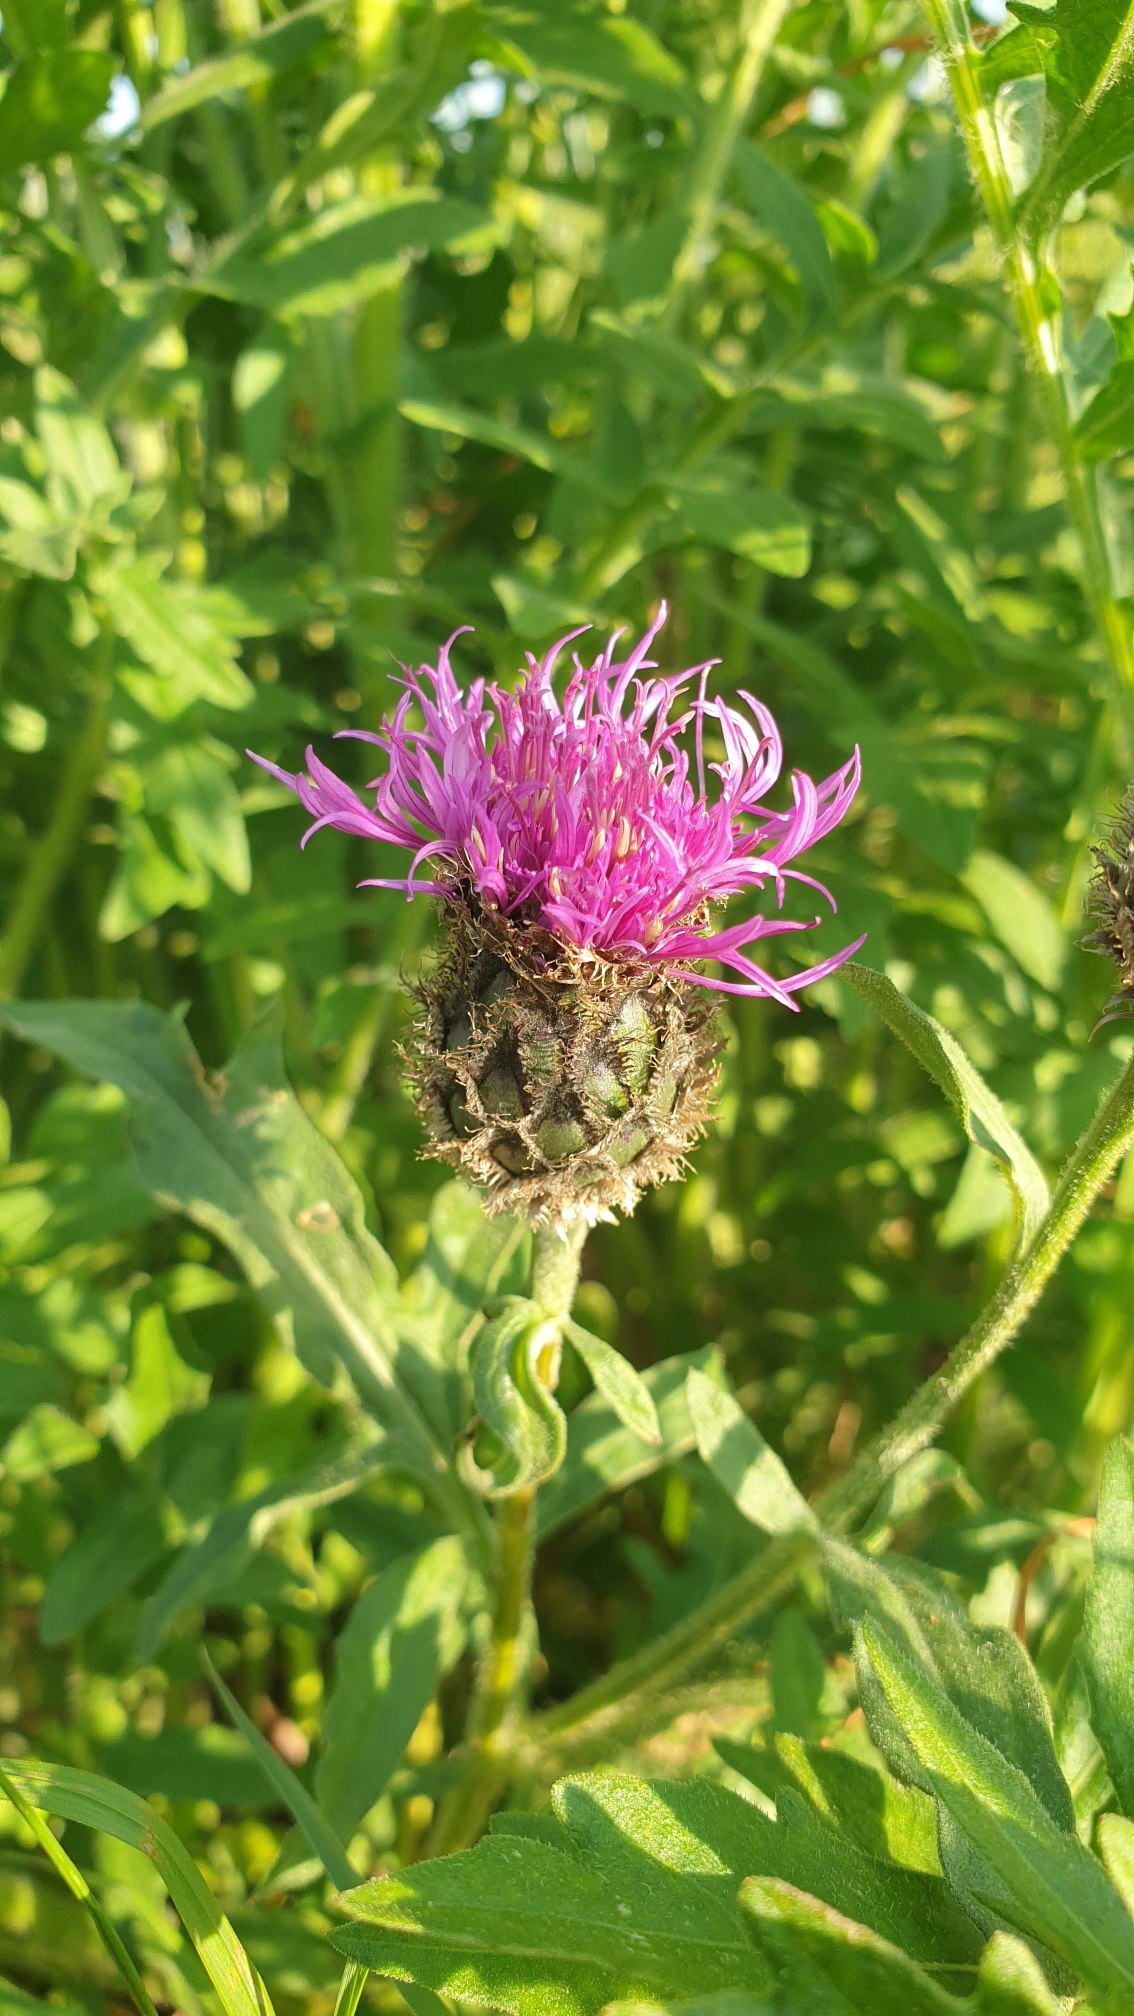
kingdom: Plantae
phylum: Tracheophyta
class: Magnoliopsida
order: Asterales
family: Asteraceae
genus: Centaurea
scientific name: Centaurea scabiosa
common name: Stor knopurt
